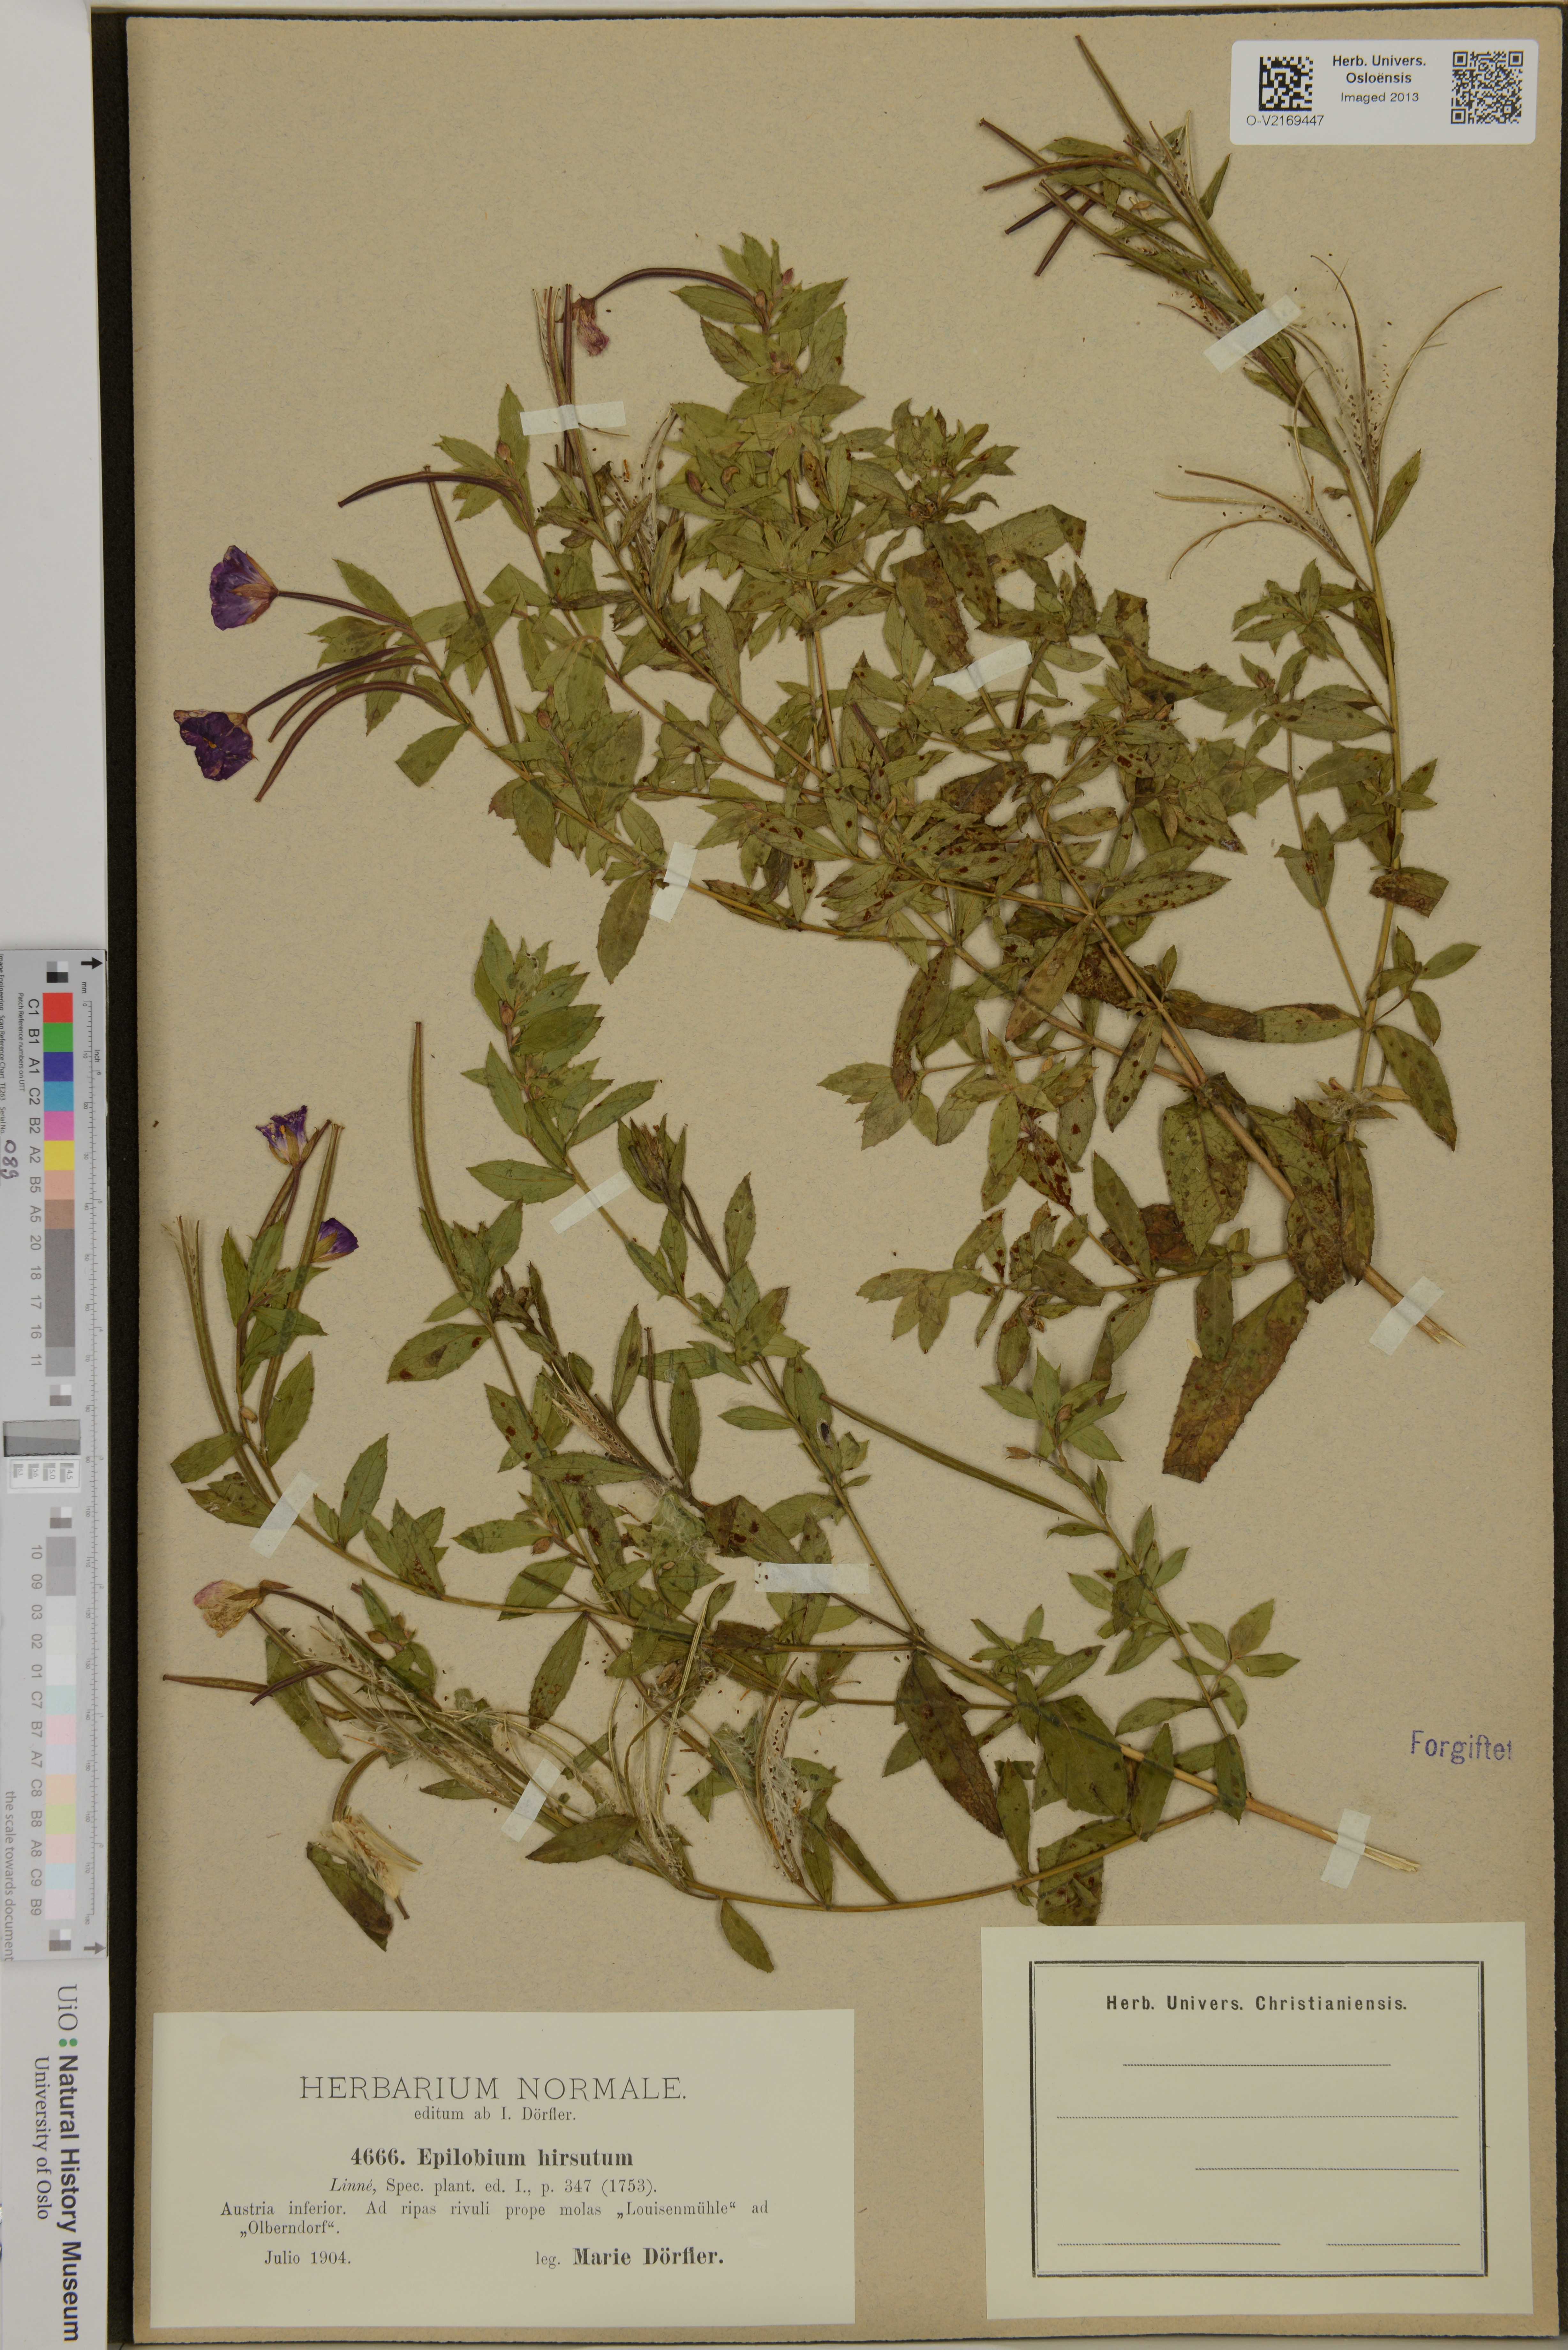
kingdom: Plantae
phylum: Tracheophyta
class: Magnoliopsida
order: Myrtales
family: Onagraceae
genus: Epilobium
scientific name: Epilobium hirsutum
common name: Great willowherb
